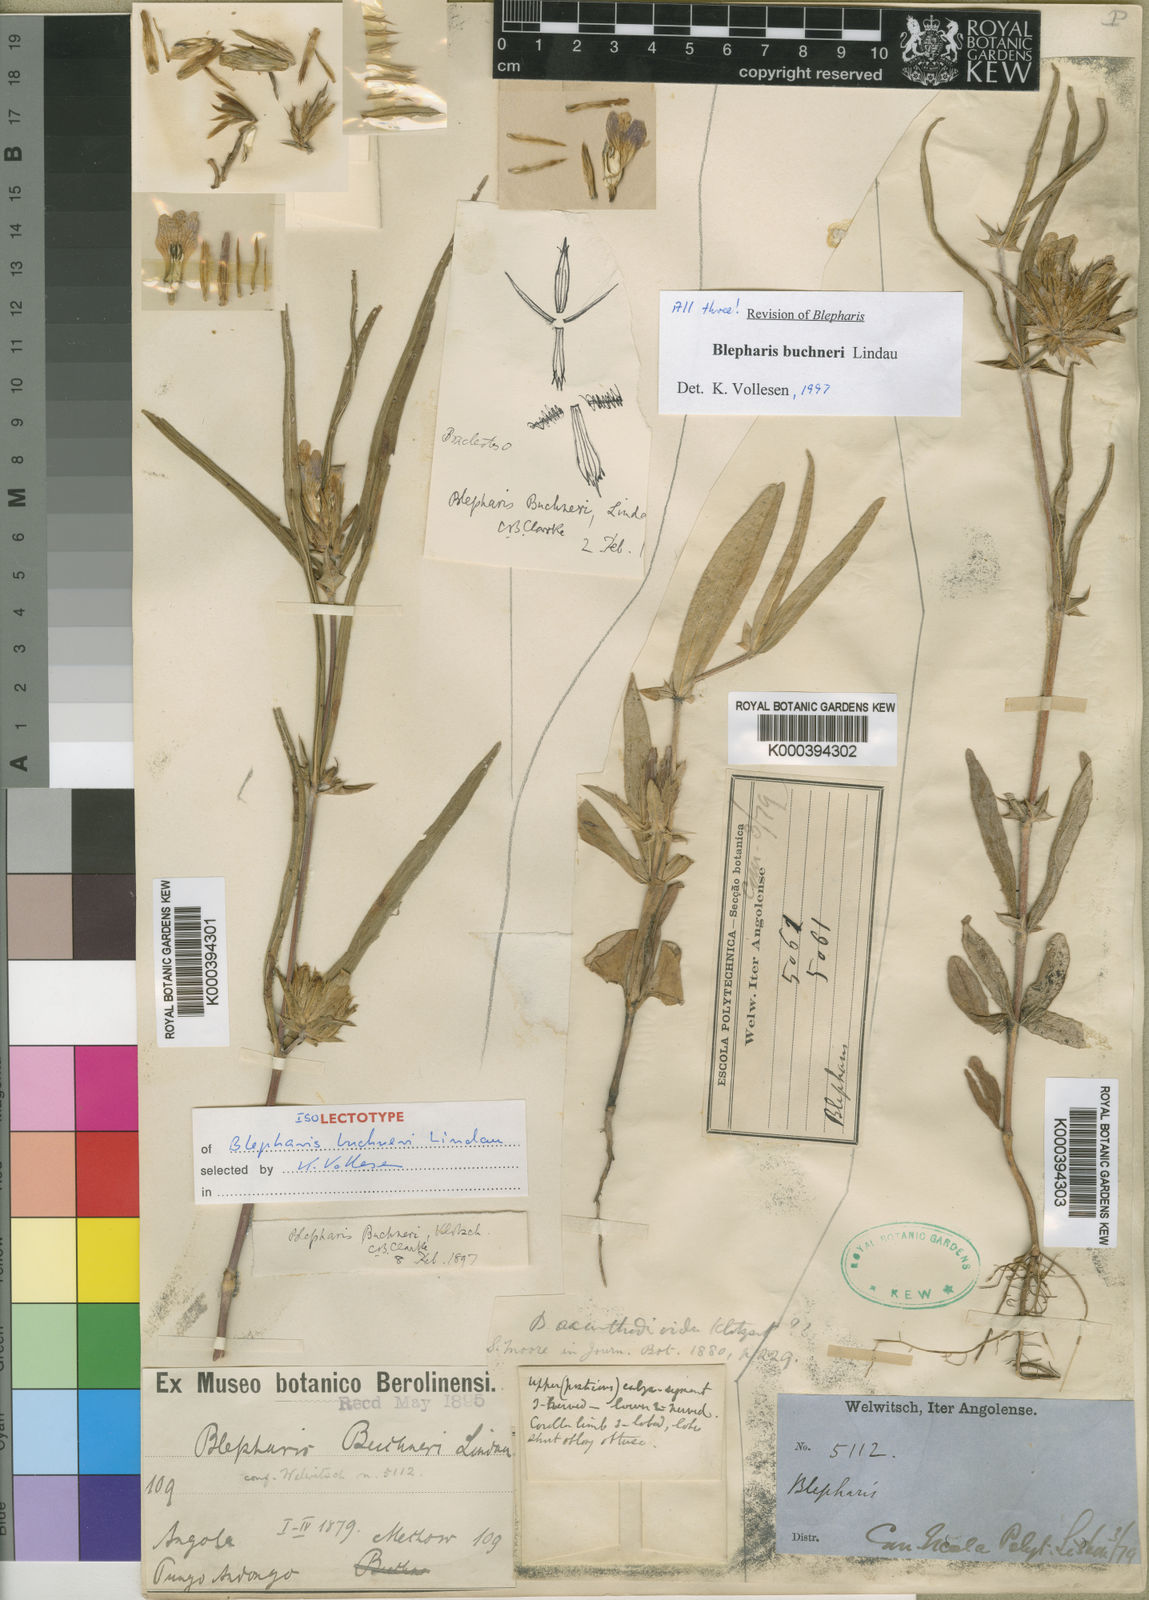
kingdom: Plantae
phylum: Tracheophyta
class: Magnoliopsida
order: Lamiales
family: Acanthaceae
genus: Blepharis
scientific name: Blepharis buchneri
